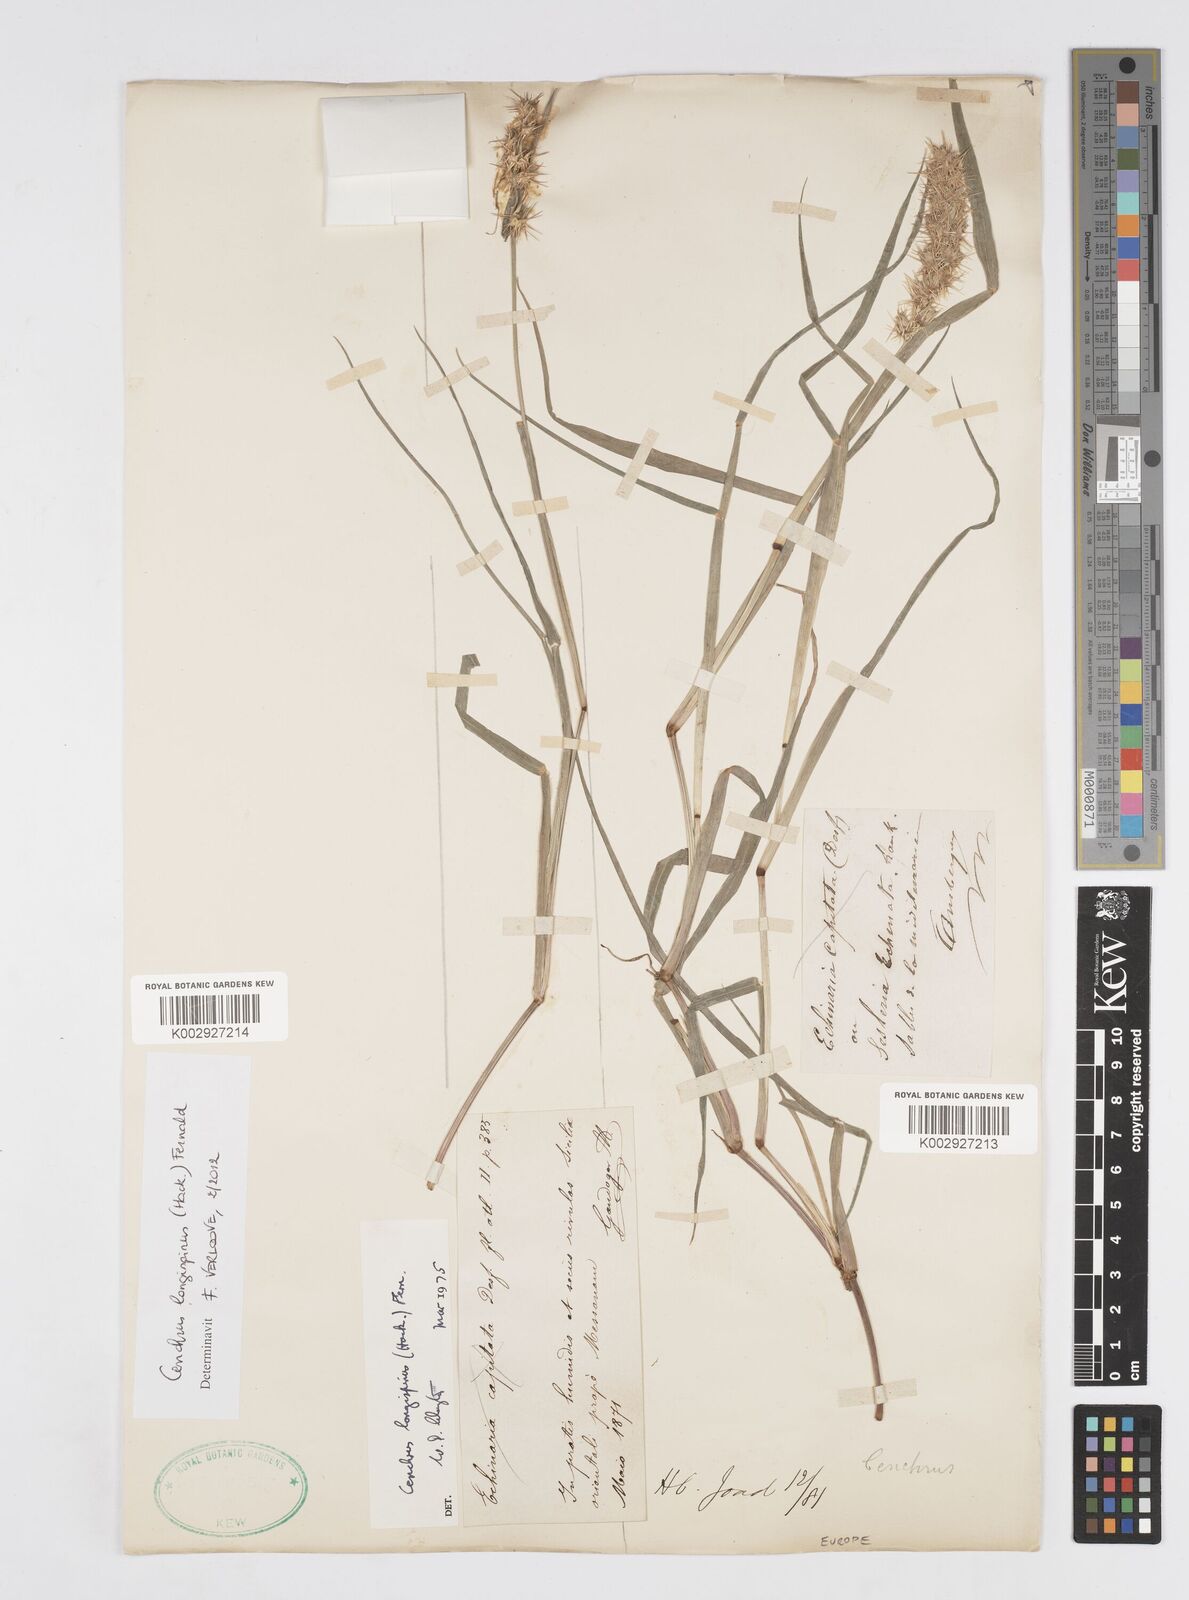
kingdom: Plantae
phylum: Tracheophyta
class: Liliopsida
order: Poales
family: Poaceae
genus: Cenchrus
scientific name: Cenchrus longispinus
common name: Mat sandbur
